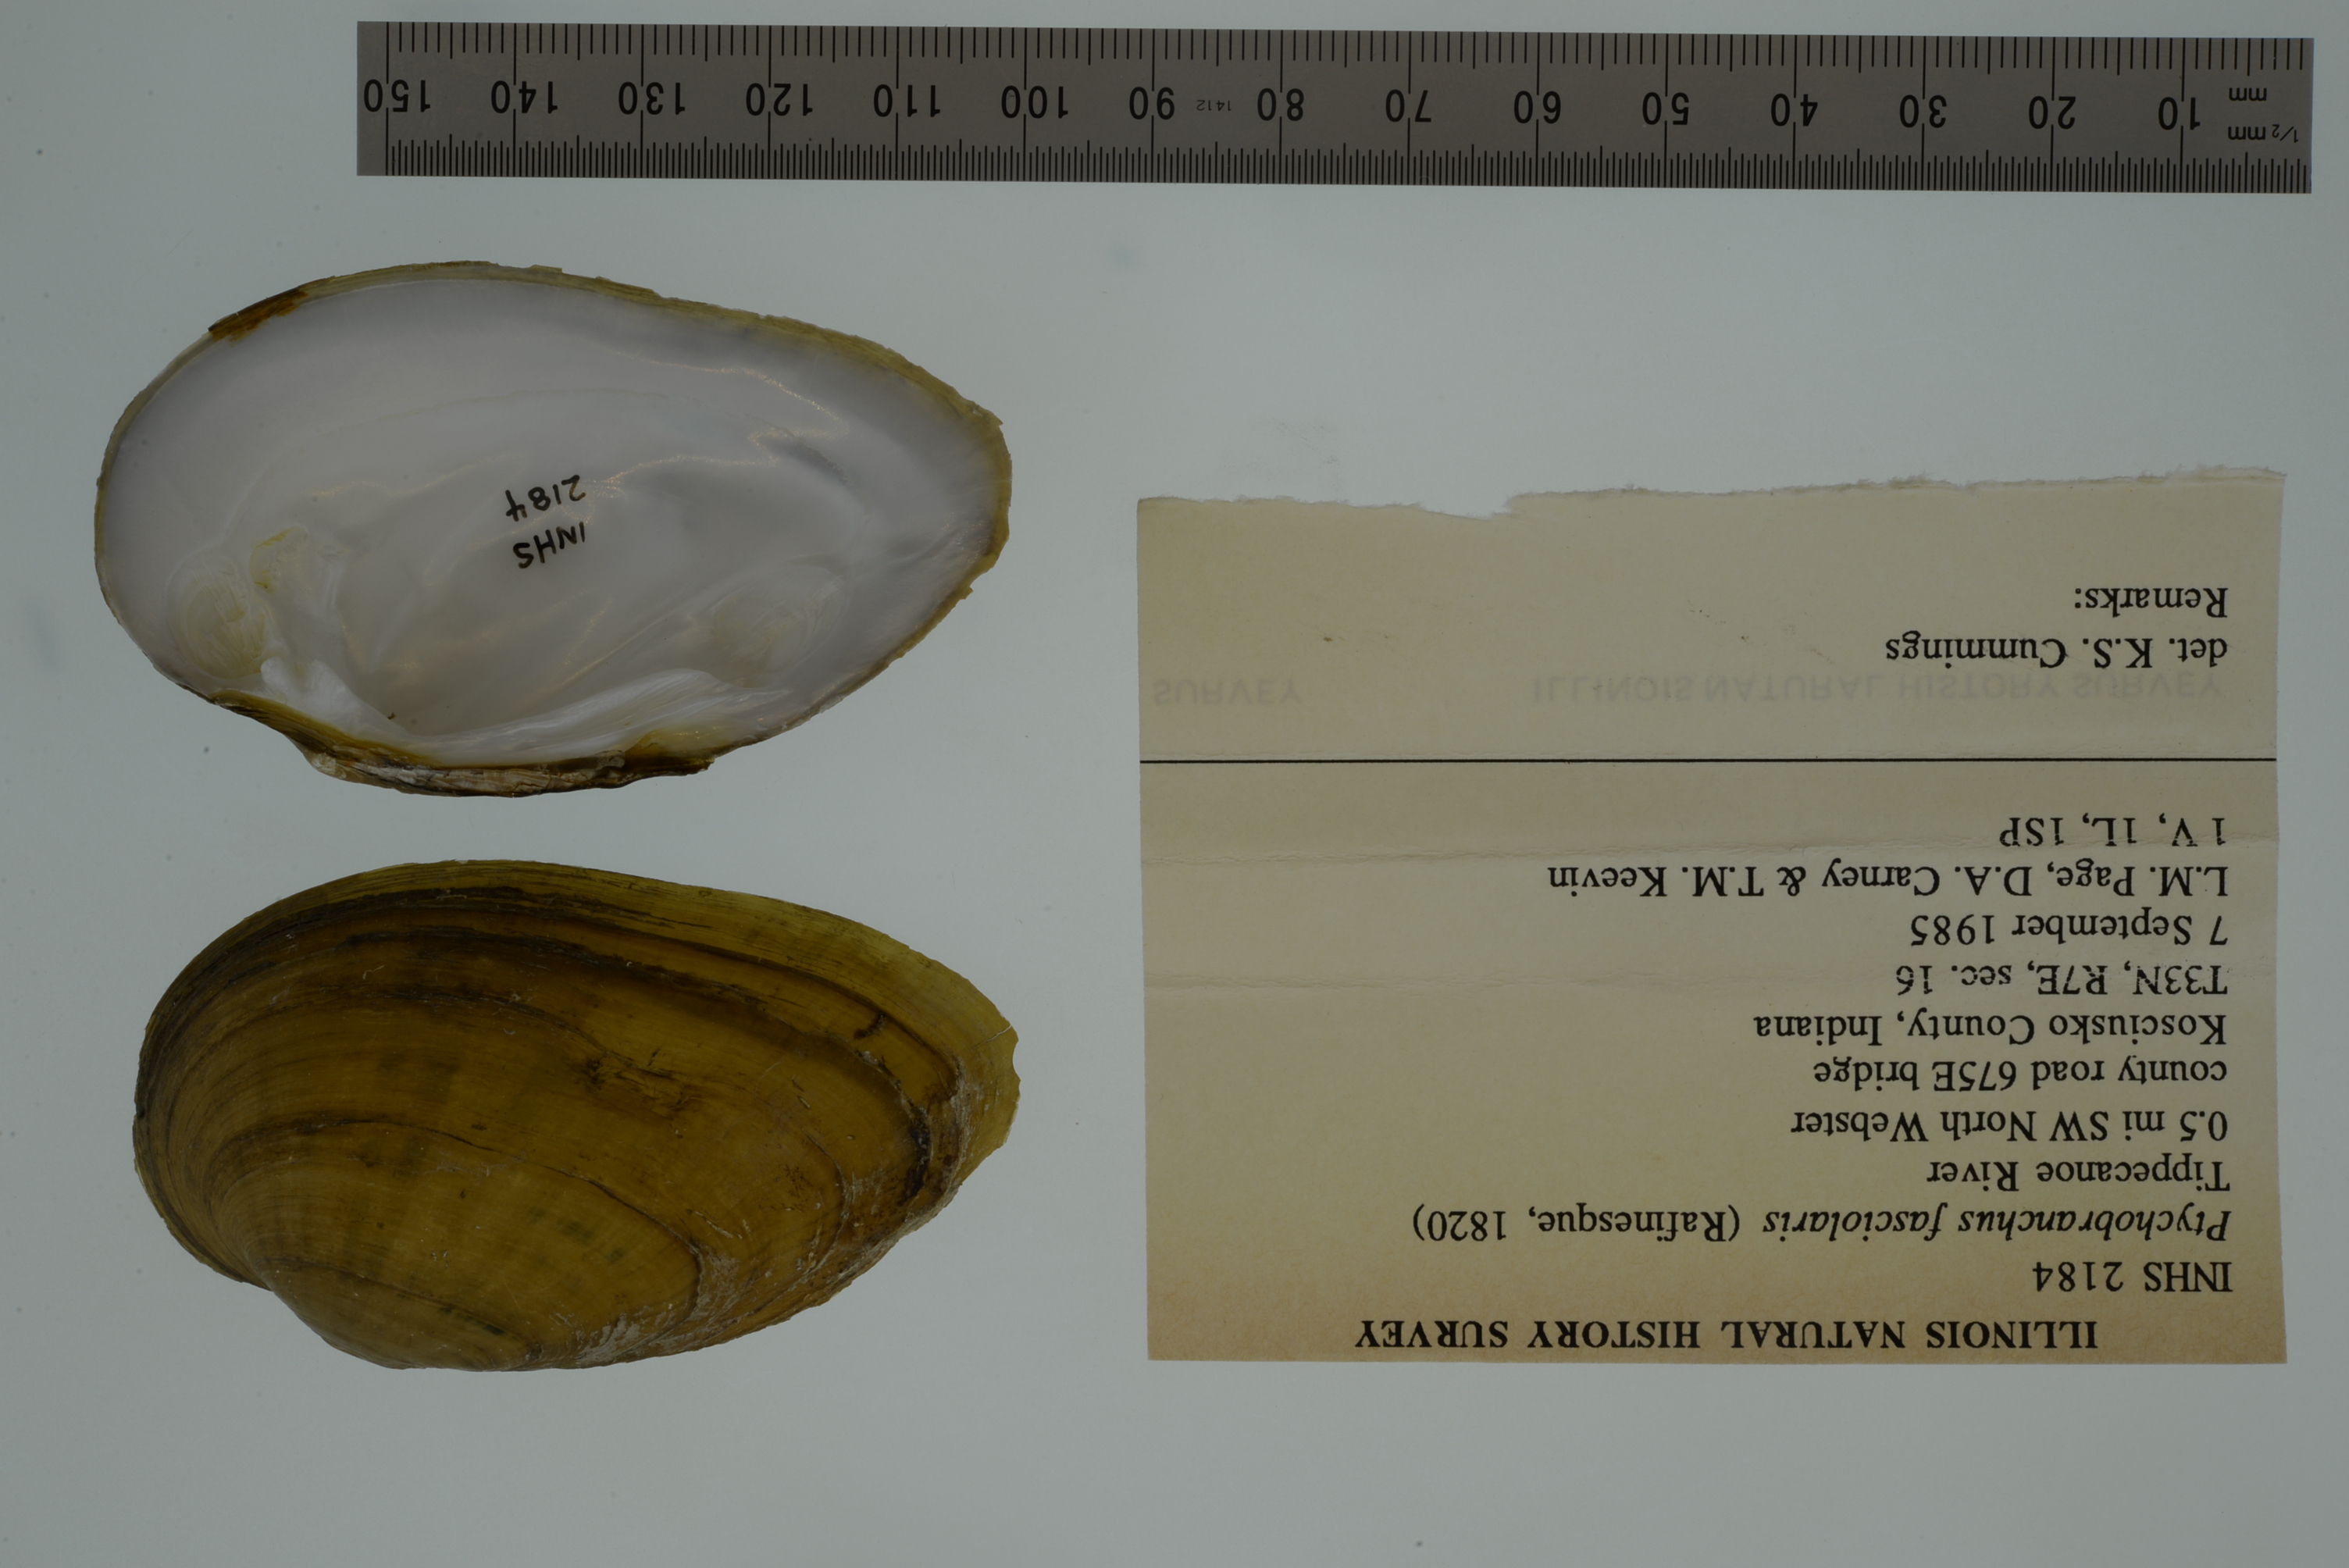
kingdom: Animalia
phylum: Mollusca
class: Bivalvia
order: Unionida
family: Unionidae
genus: Ptychobranchus
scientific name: Ptychobranchus fasciolaris
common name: Kidneyshell
